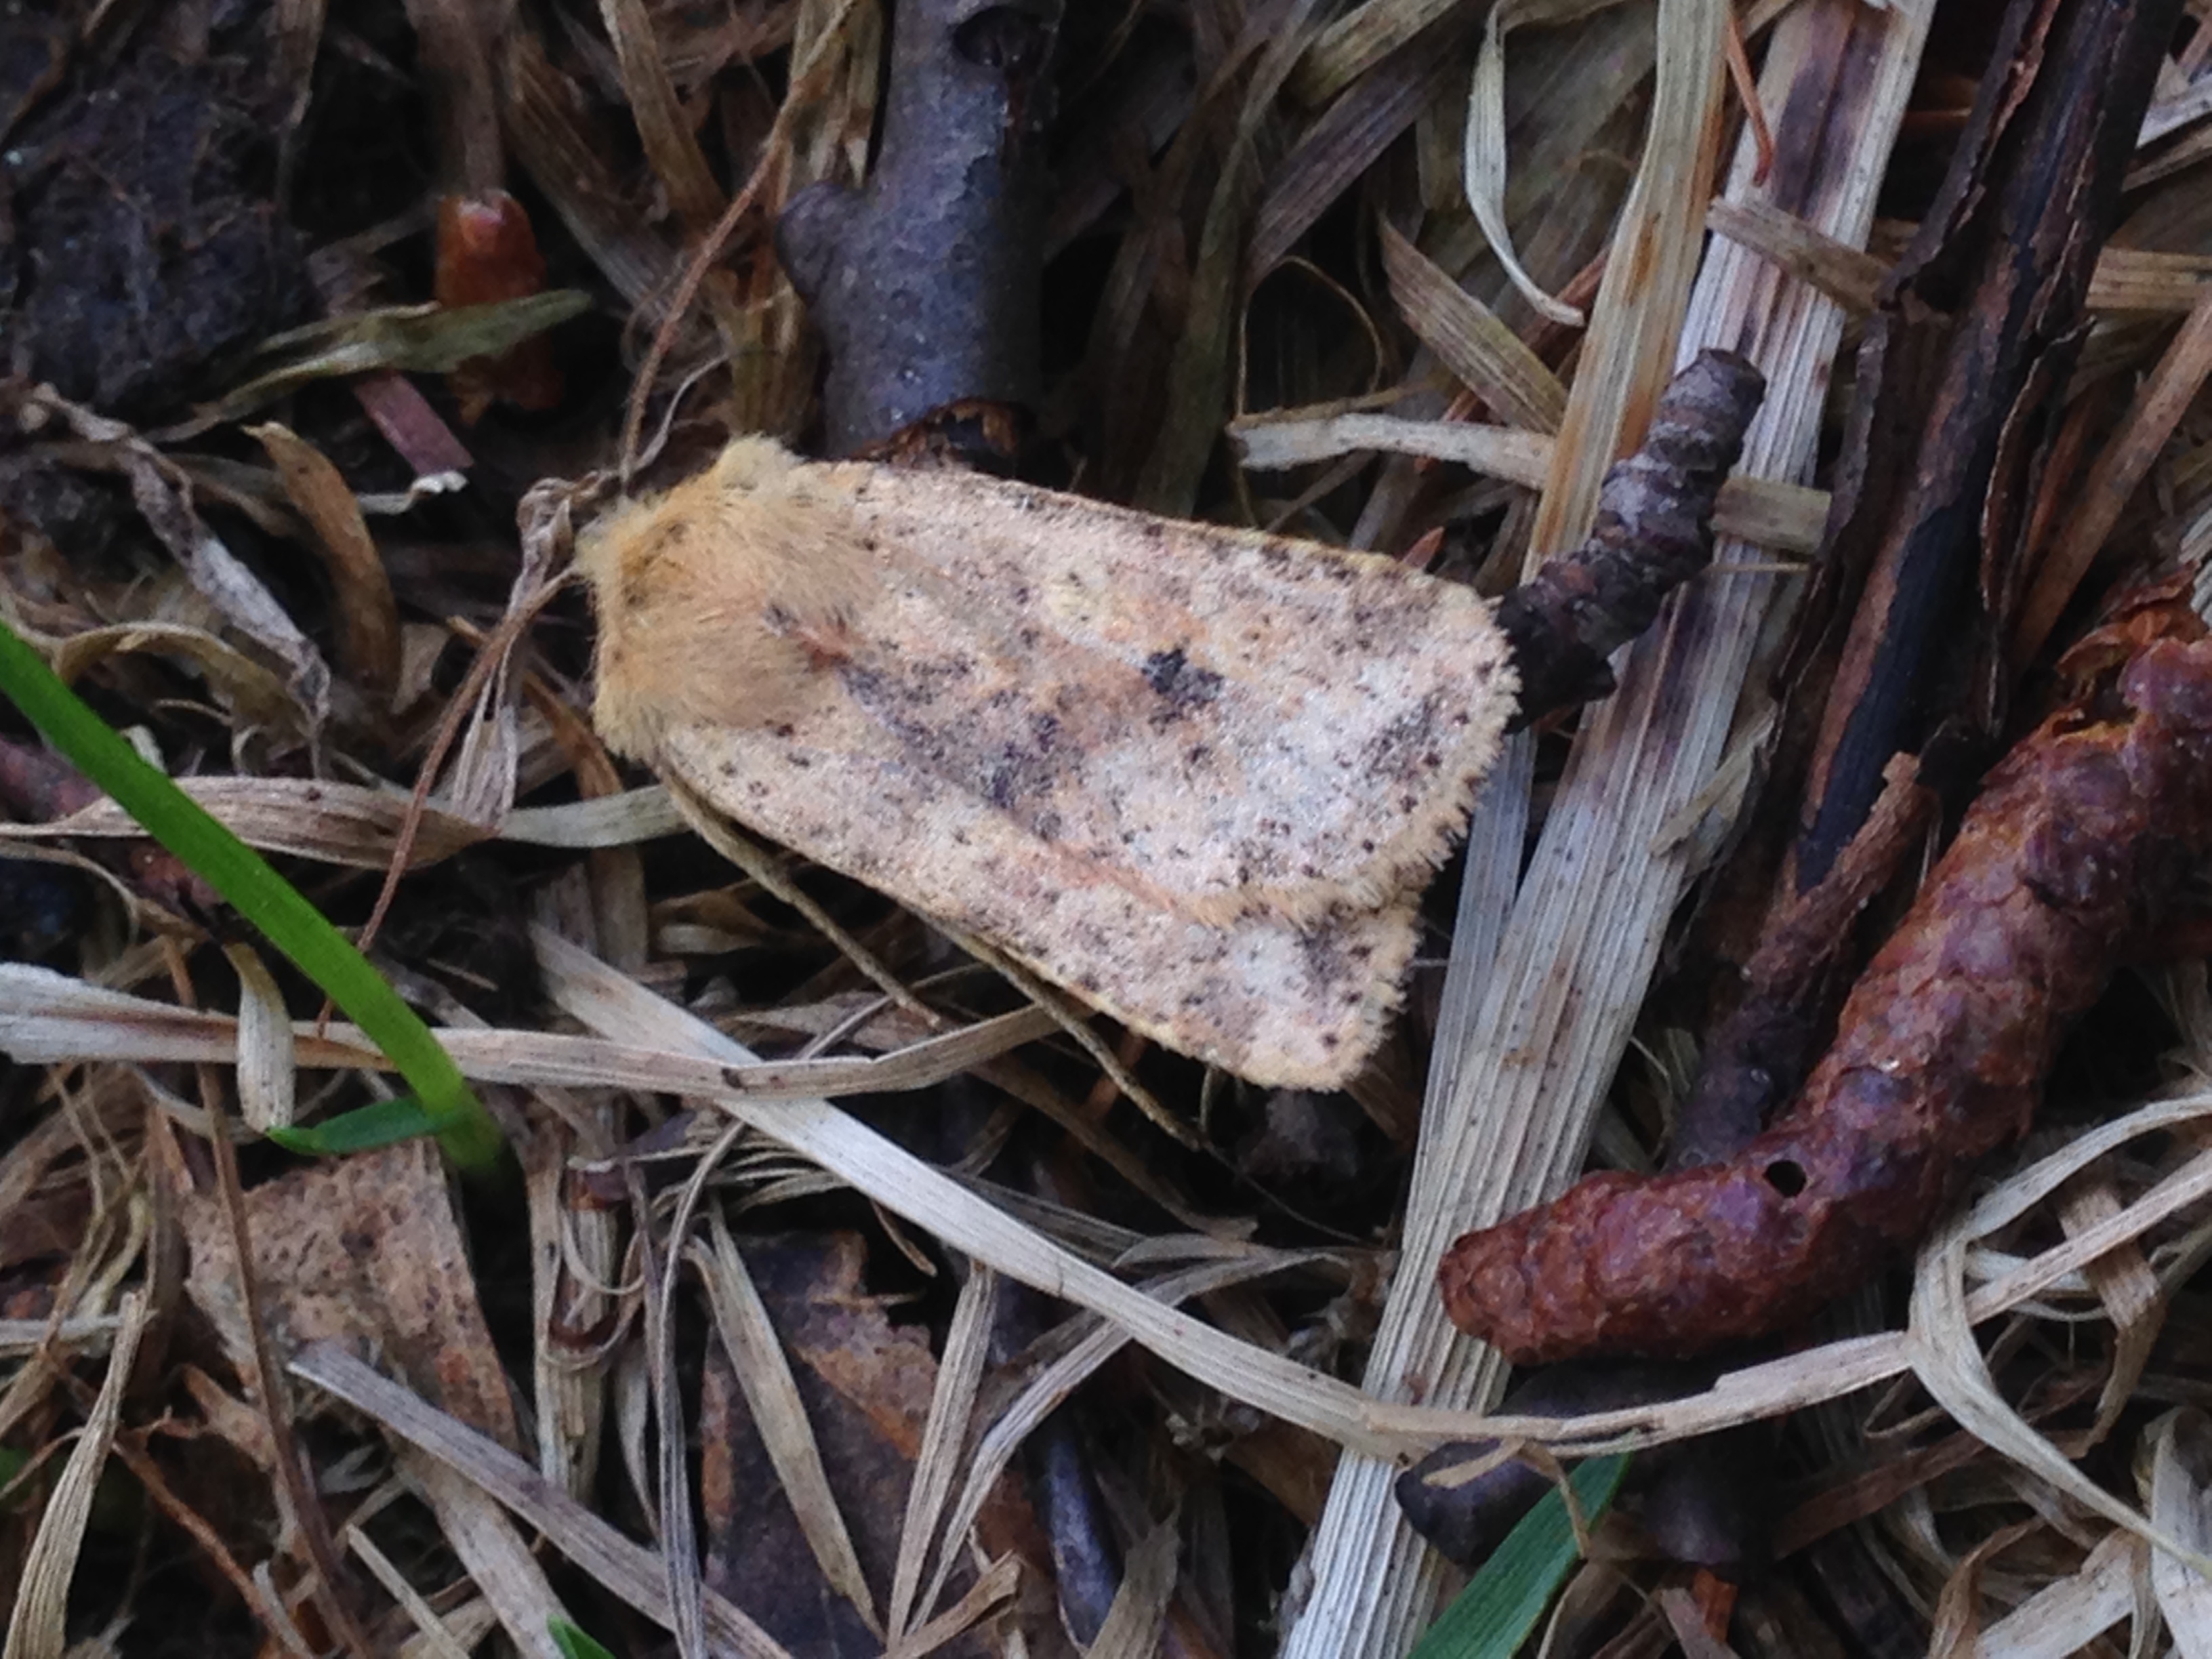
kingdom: Animalia
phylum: Arthropoda
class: Insecta
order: Lepidoptera
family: Noctuidae
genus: Conistra
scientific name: Conistra rubiginea
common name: Dotted chestnut
